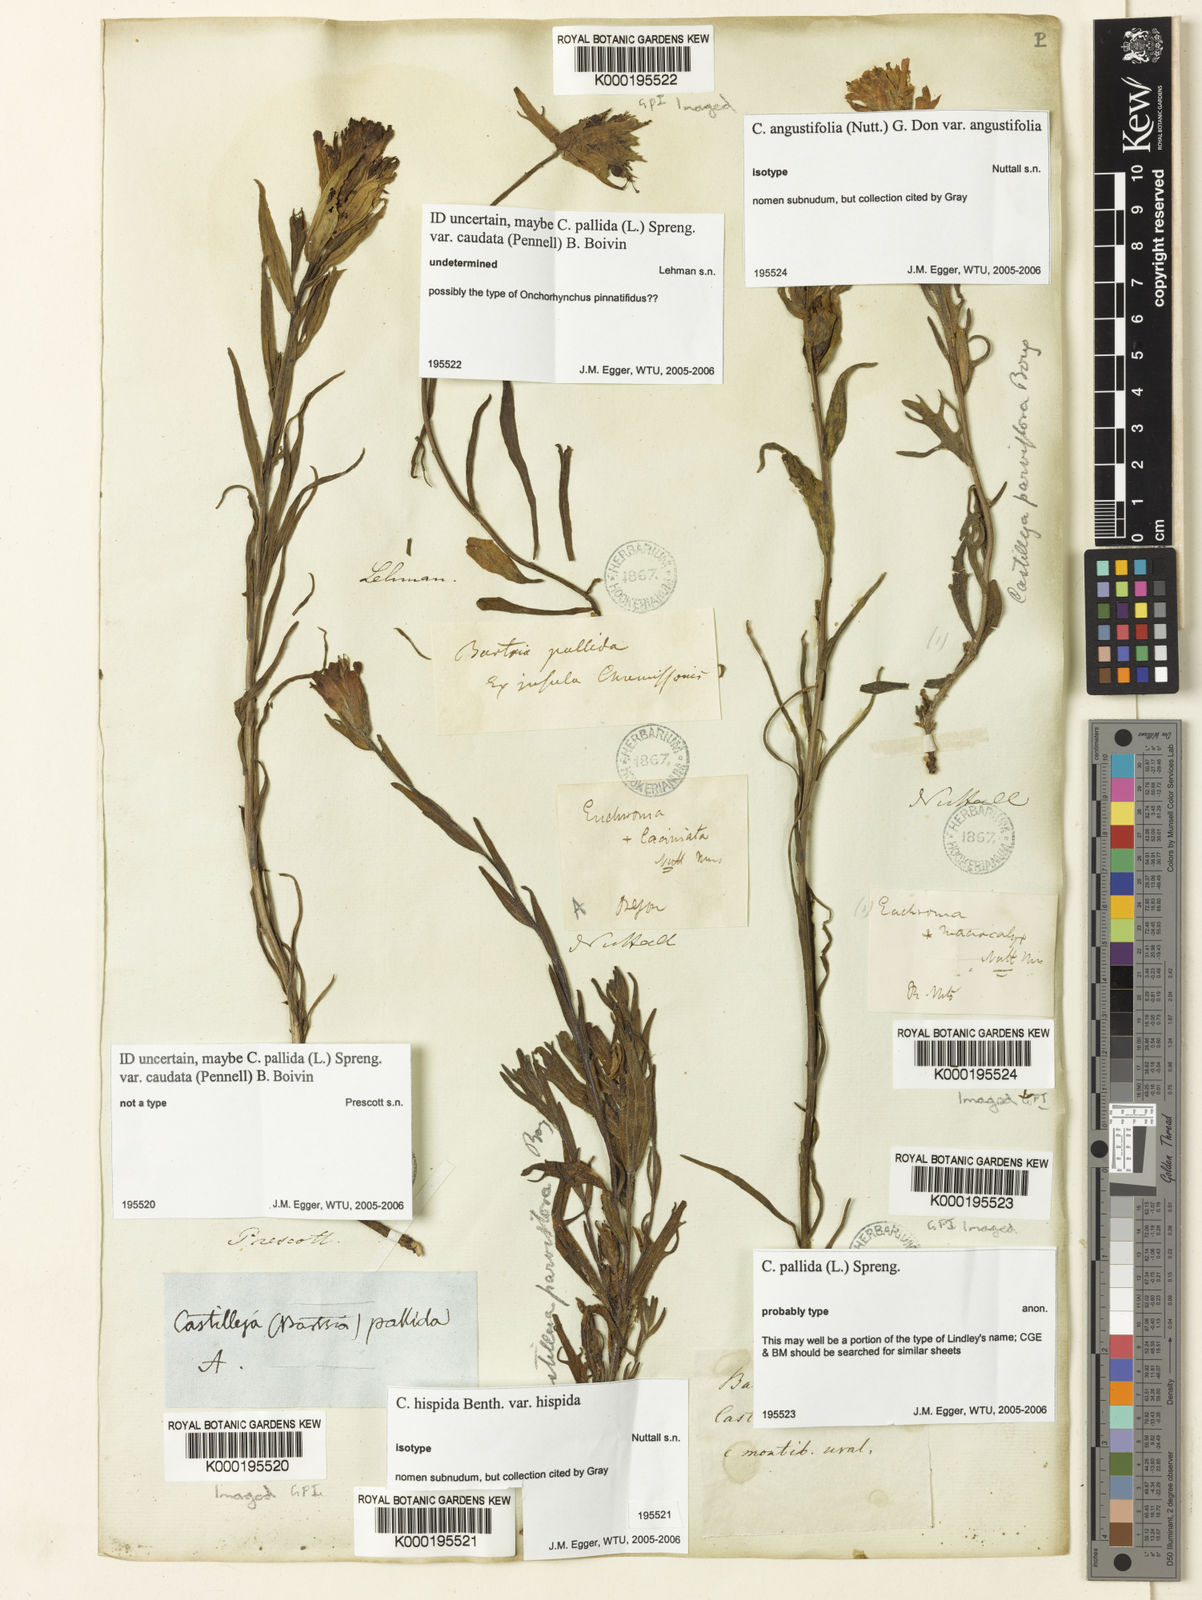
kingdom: Plantae
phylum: Tracheophyta
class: Magnoliopsida
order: Lamiales
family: Orobanchaceae
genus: Castilleja
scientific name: Castilleja hispida
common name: Bristly paintbrush
